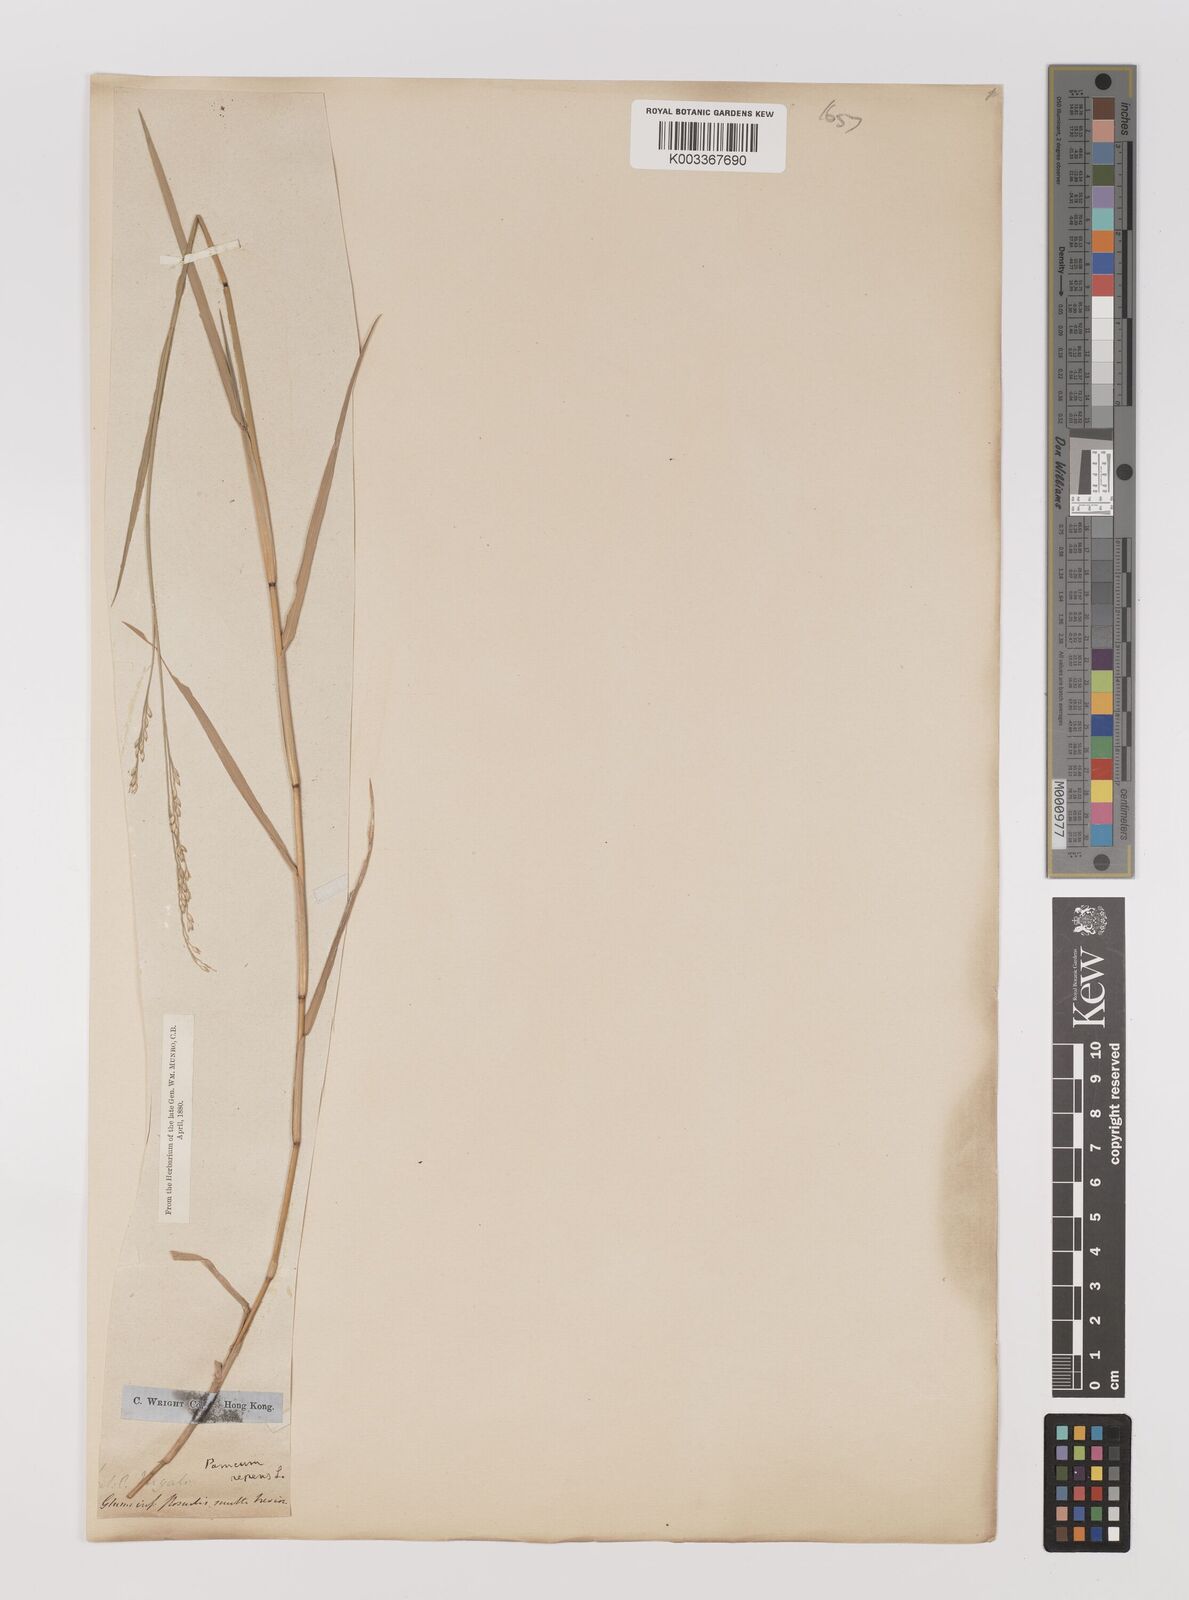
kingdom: Plantae
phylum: Tracheophyta
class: Liliopsida
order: Poales
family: Poaceae
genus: Panicum
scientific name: Panicum repens
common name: Torpedo grass
